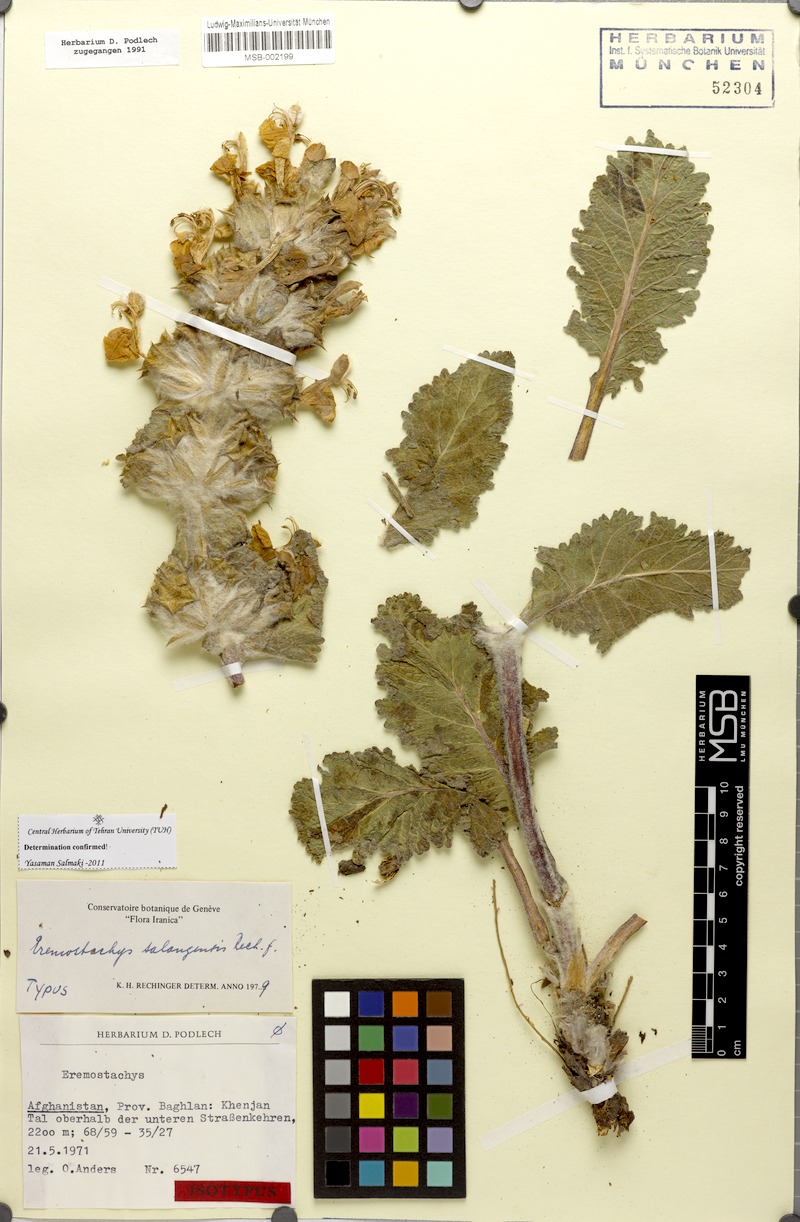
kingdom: Plantae
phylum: Tracheophyta
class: Magnoliopsida
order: Lamiales
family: Lamiaceae
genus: Phlomoides
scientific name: Phlomoides salangensis
